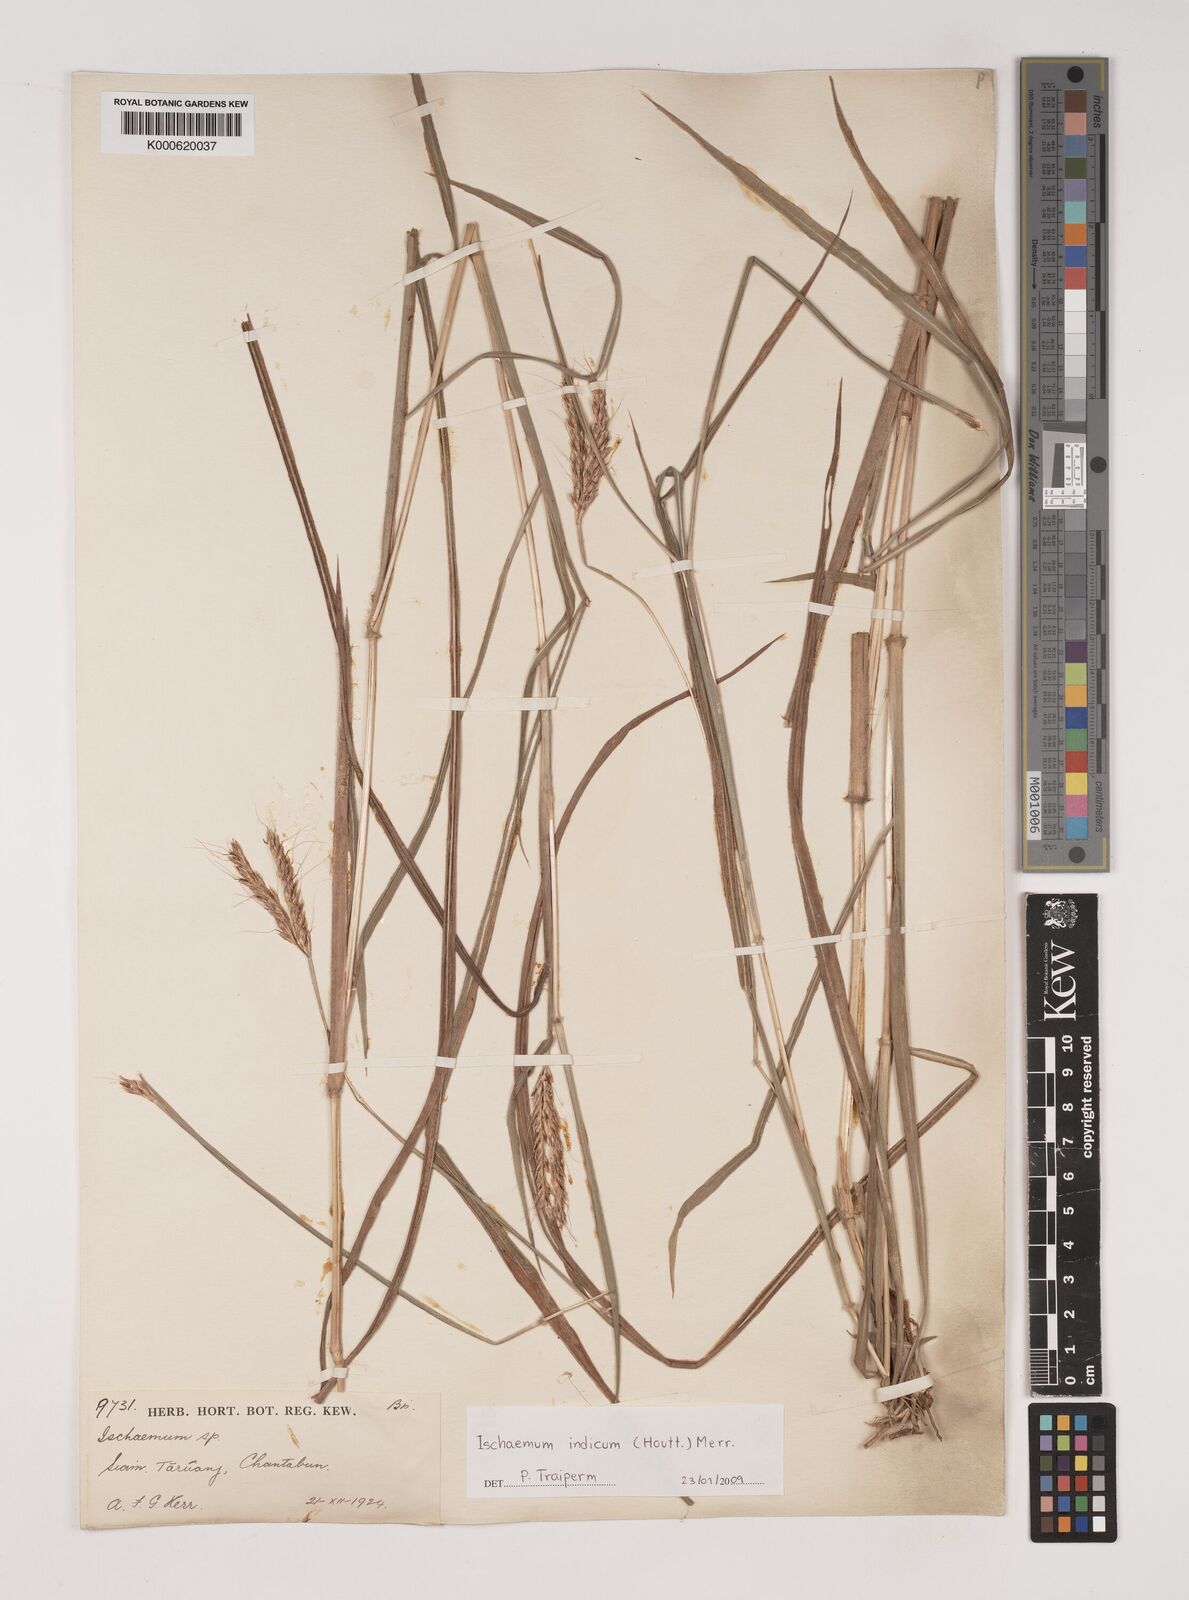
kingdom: Plantae
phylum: Tracheophyta
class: Liliopsida
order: Poales
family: Poaceae
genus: Polytrias
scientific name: Polytrias indica
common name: Indian murainagrass
